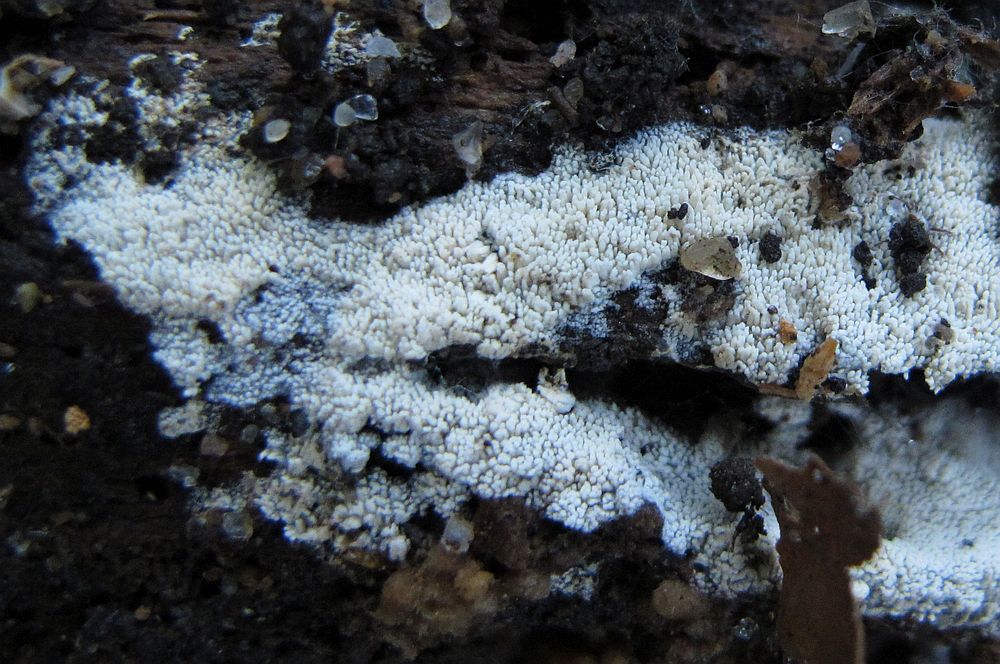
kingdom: Fungi
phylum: Basidiomycota
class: Agaricomycetes
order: Hymenochaetales
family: Schizoporaceae
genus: Schizopora
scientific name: Schizopora paradoxa
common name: hvid tandsvamp
